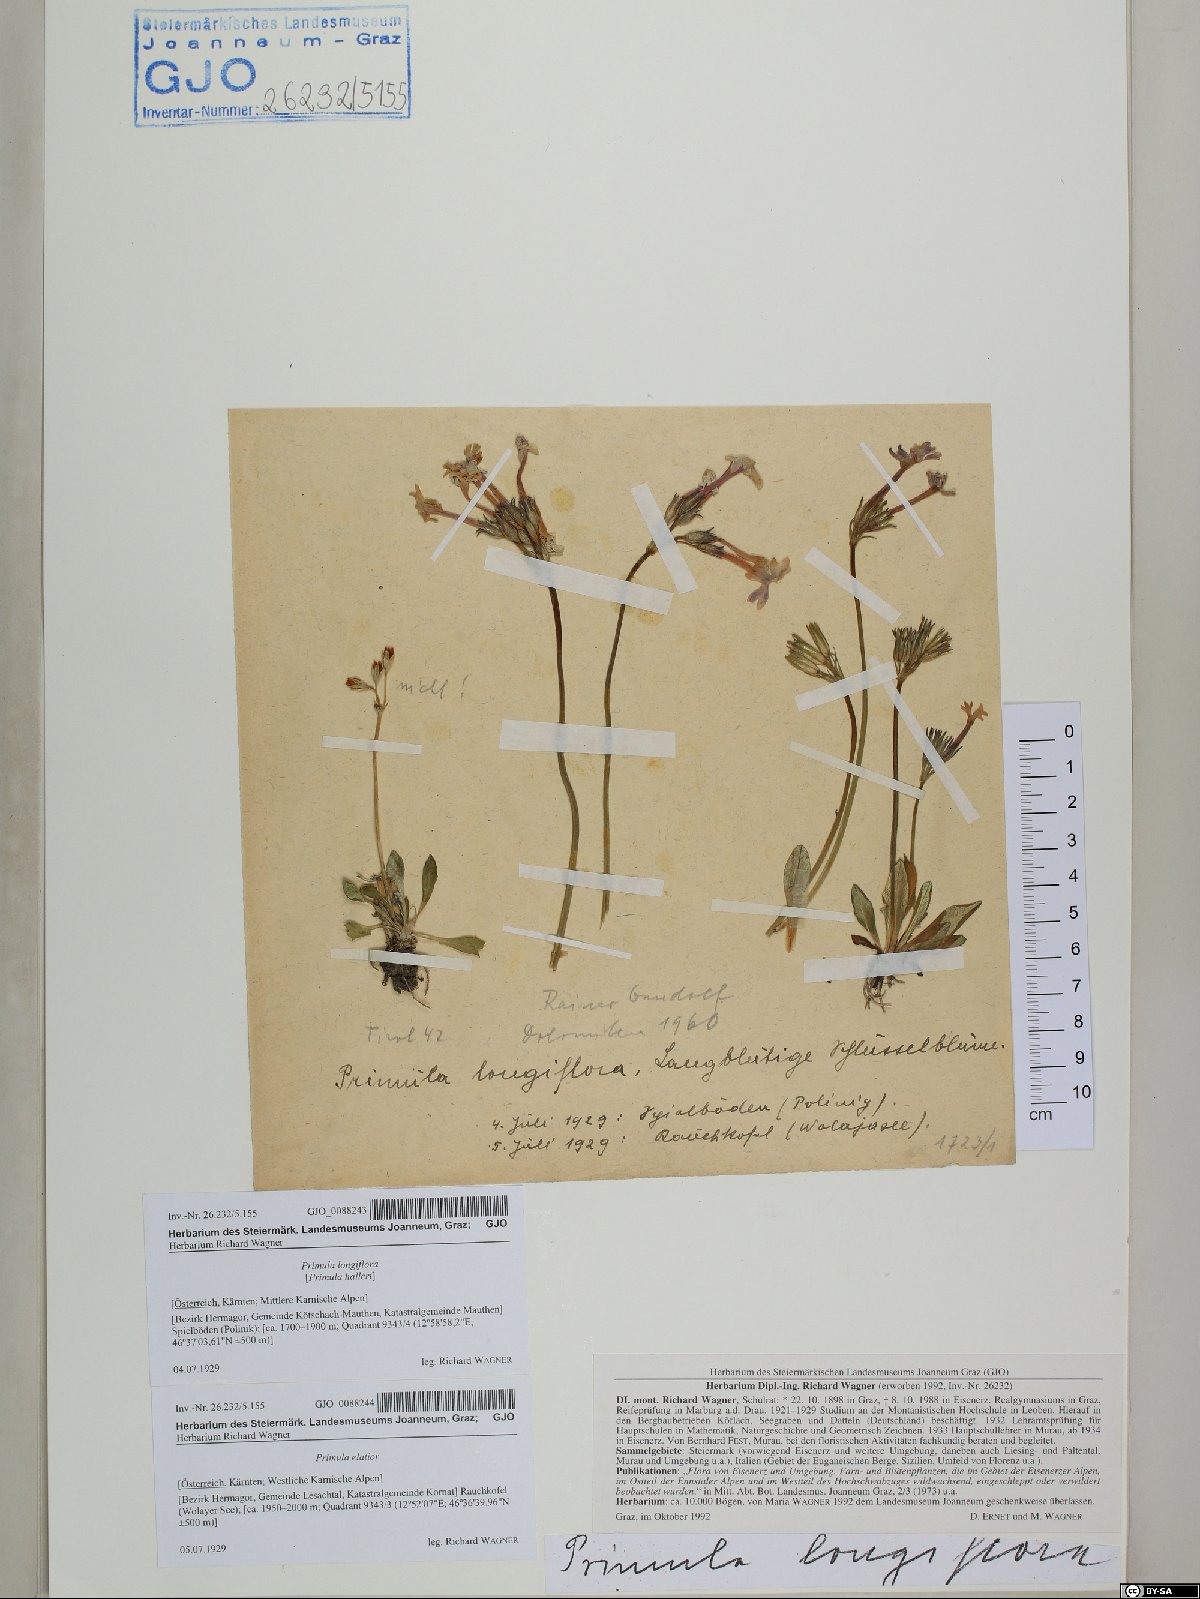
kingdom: Plantae
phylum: Tracheophyta
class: Magnoliopsida
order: Ericales
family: Primulaceae
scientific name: Primulaceae
